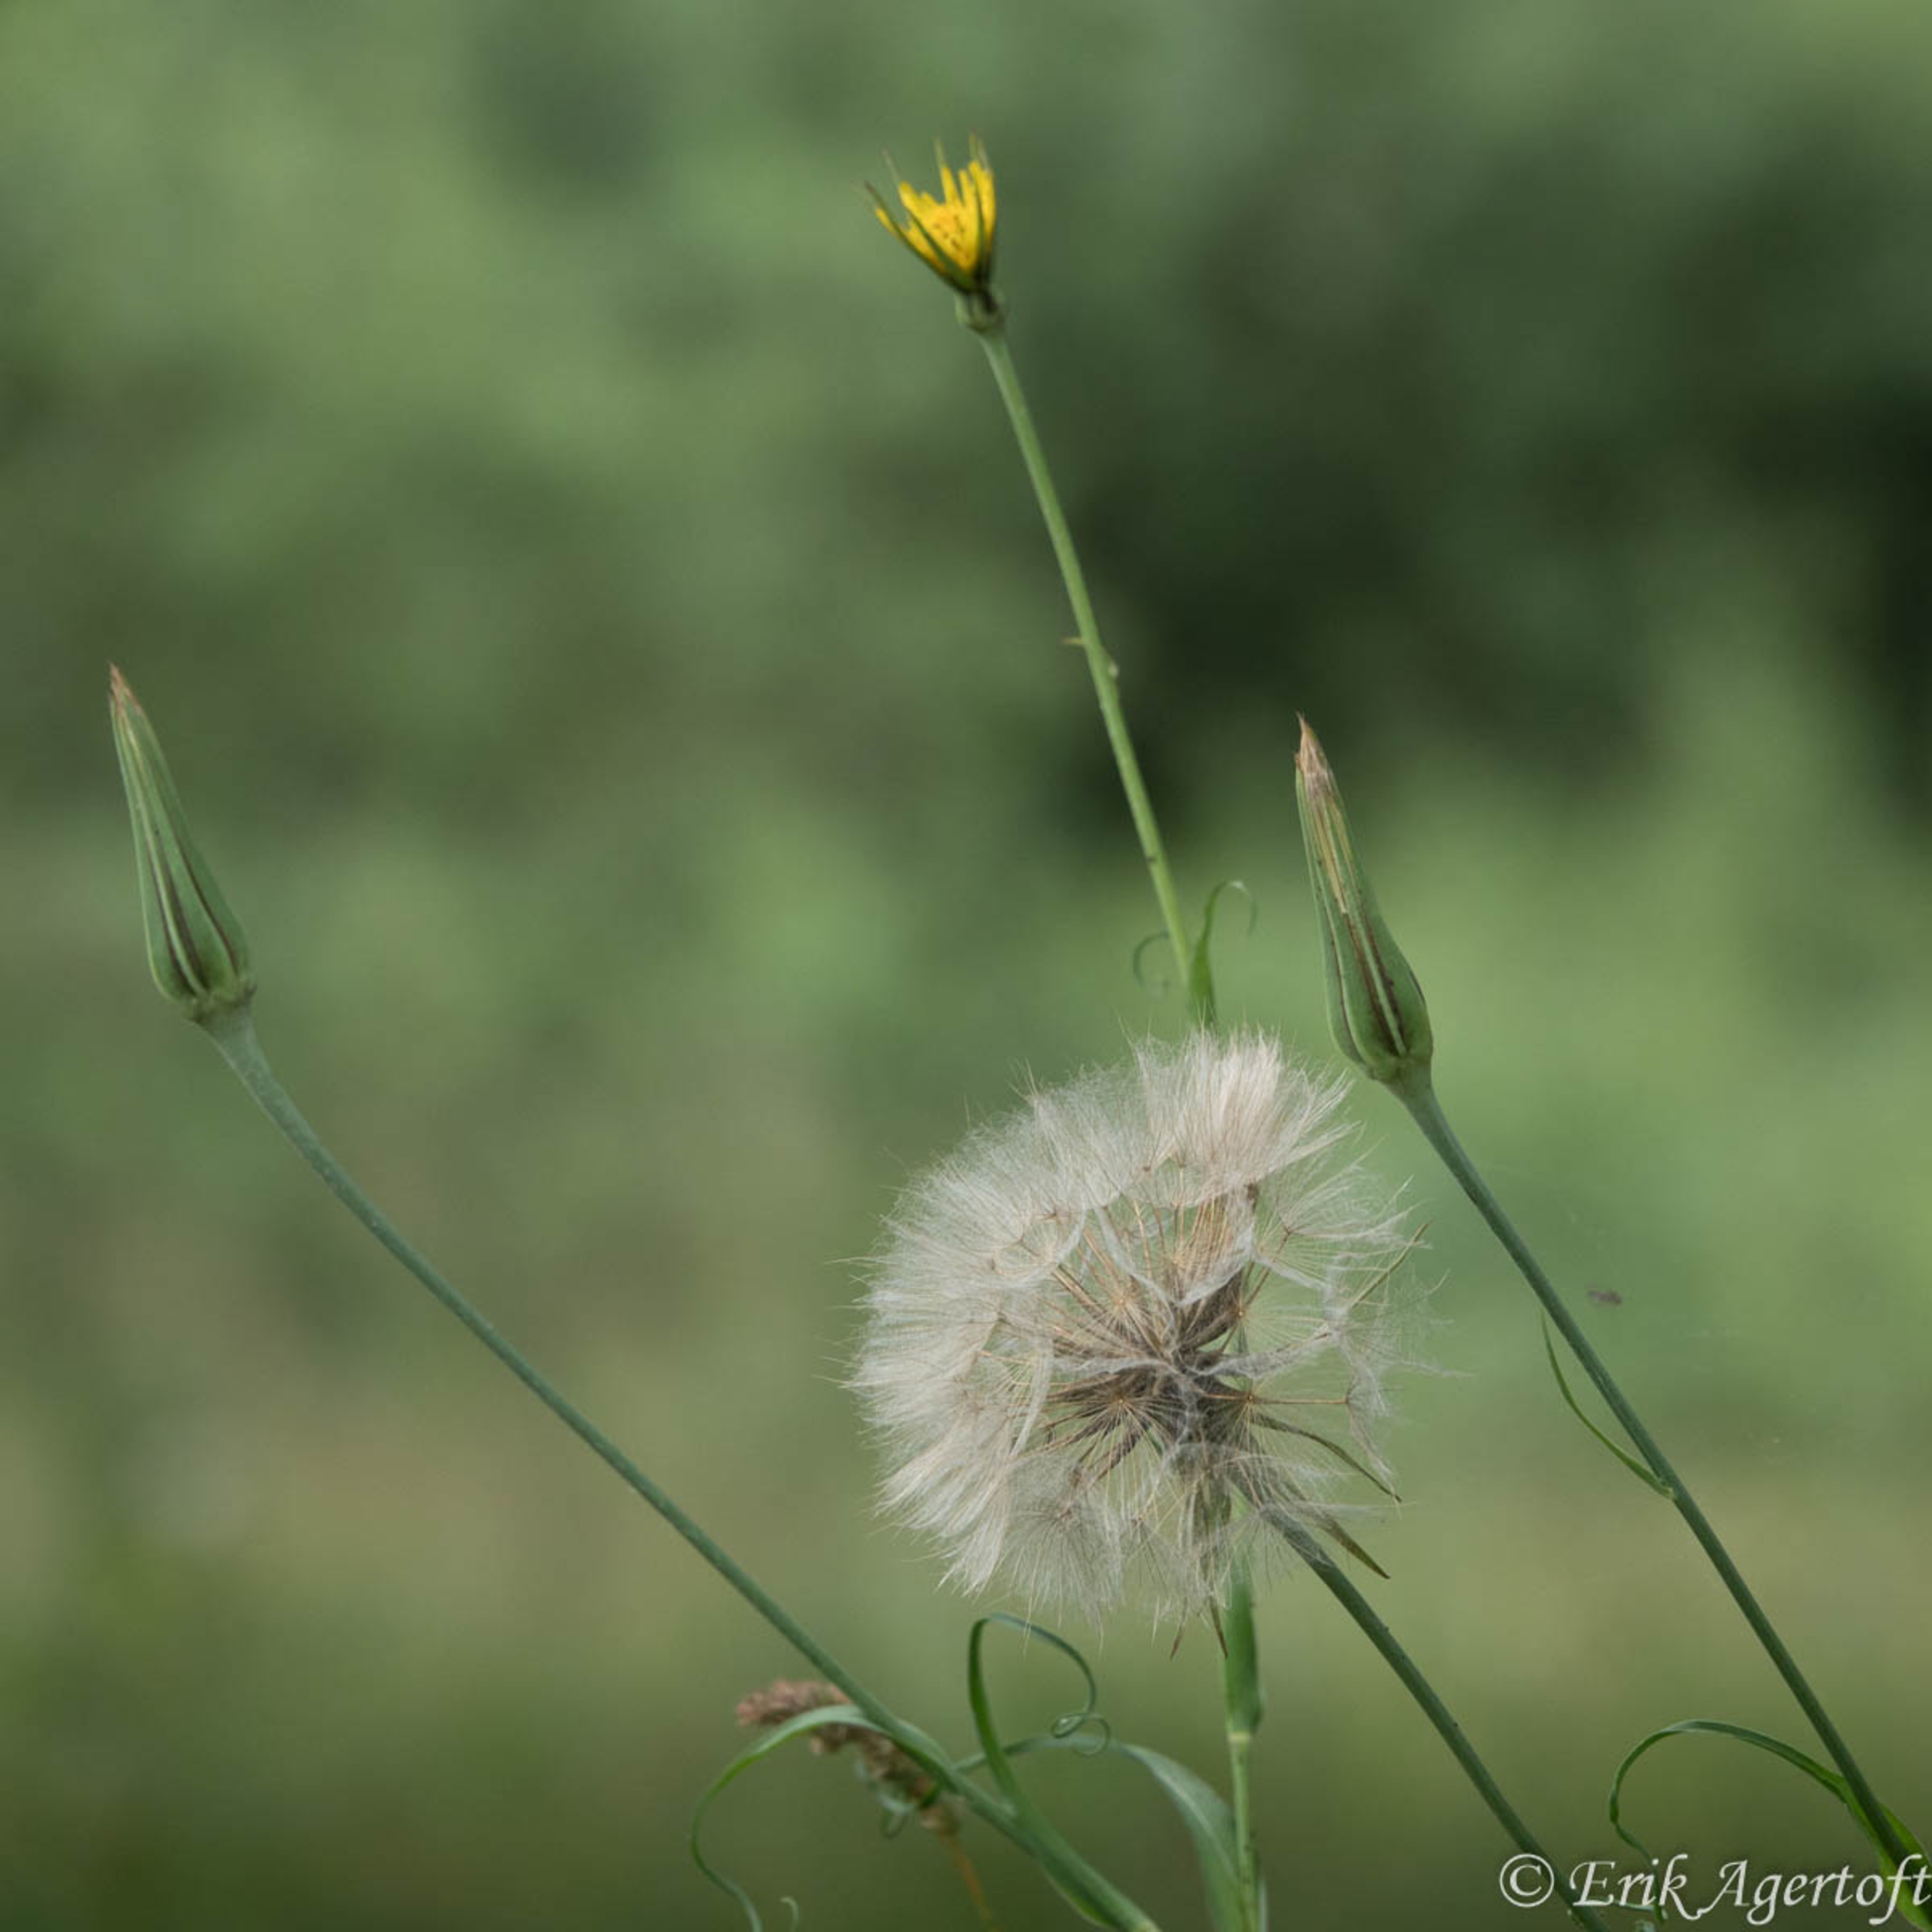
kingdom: Plantae
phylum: Tracheophyta
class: Magnoliopsida
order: Asterales
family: Asteraceae
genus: Tragopogon
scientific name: Tragopogon pratensis
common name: Gedeskæg
